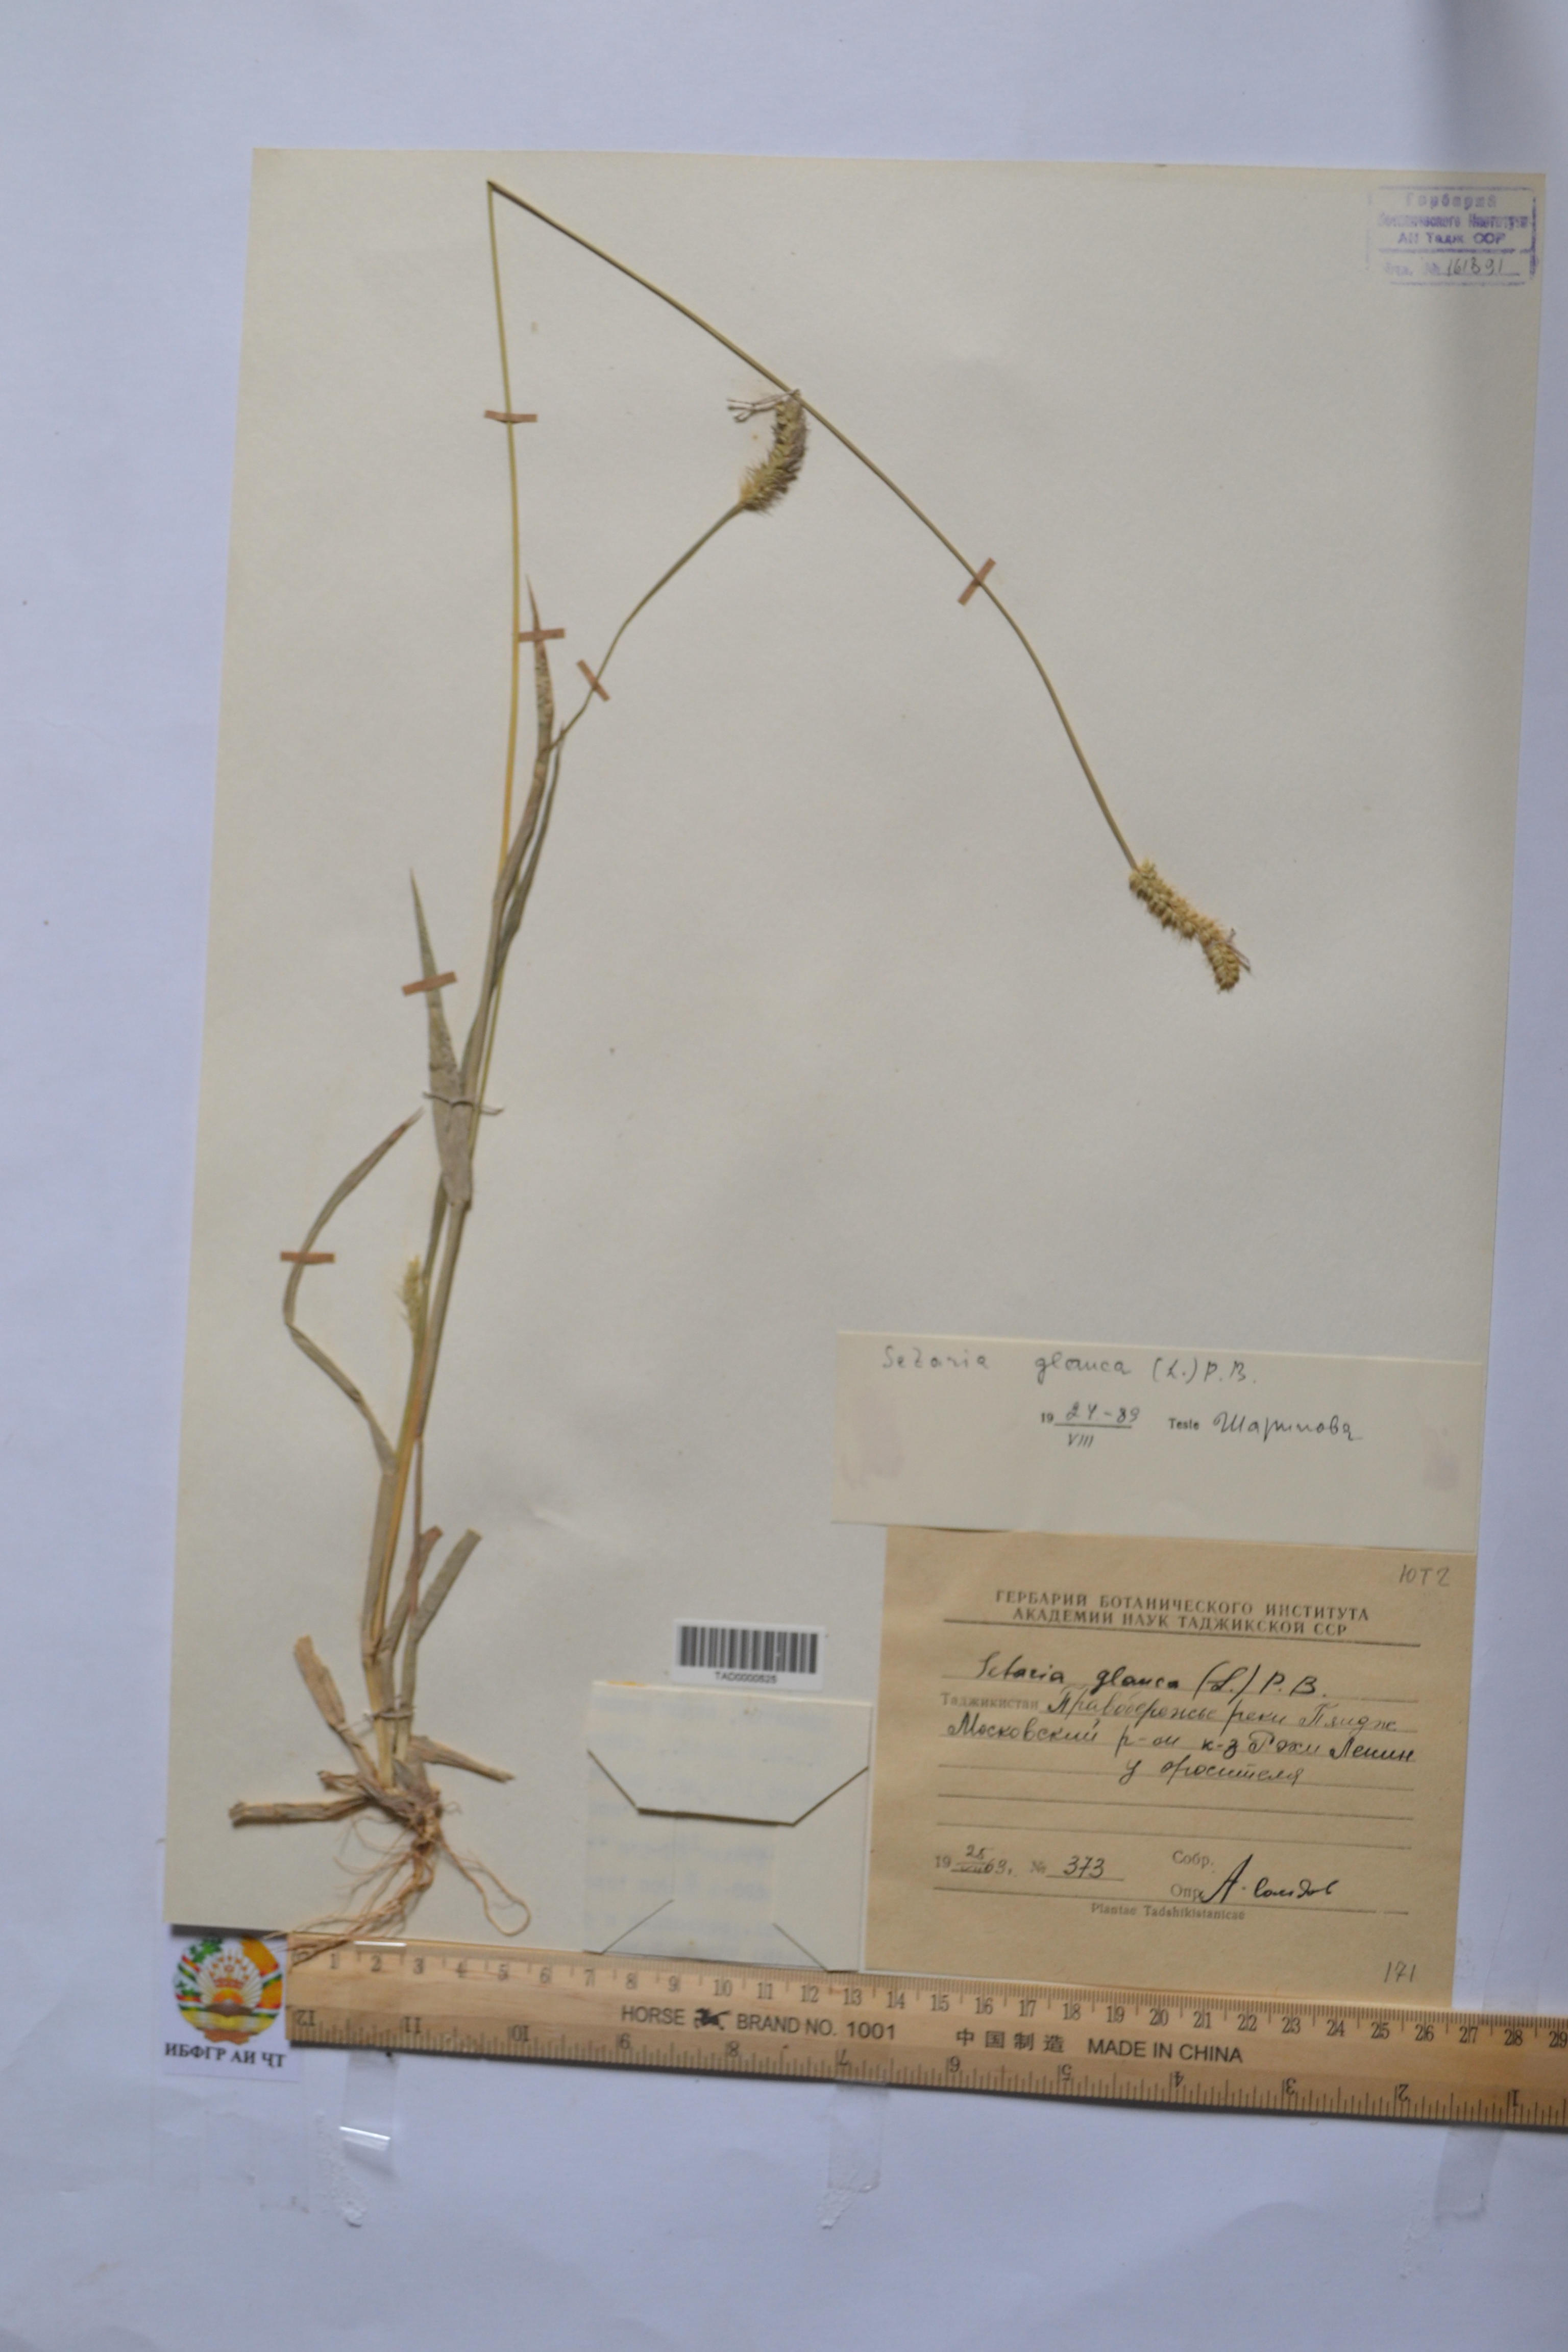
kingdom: Plantae
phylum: Tracheophyta
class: Liliopsida
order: Poales
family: Poaceae
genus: Cenchrus
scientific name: Cenchrus americanus
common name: Pearl millet
